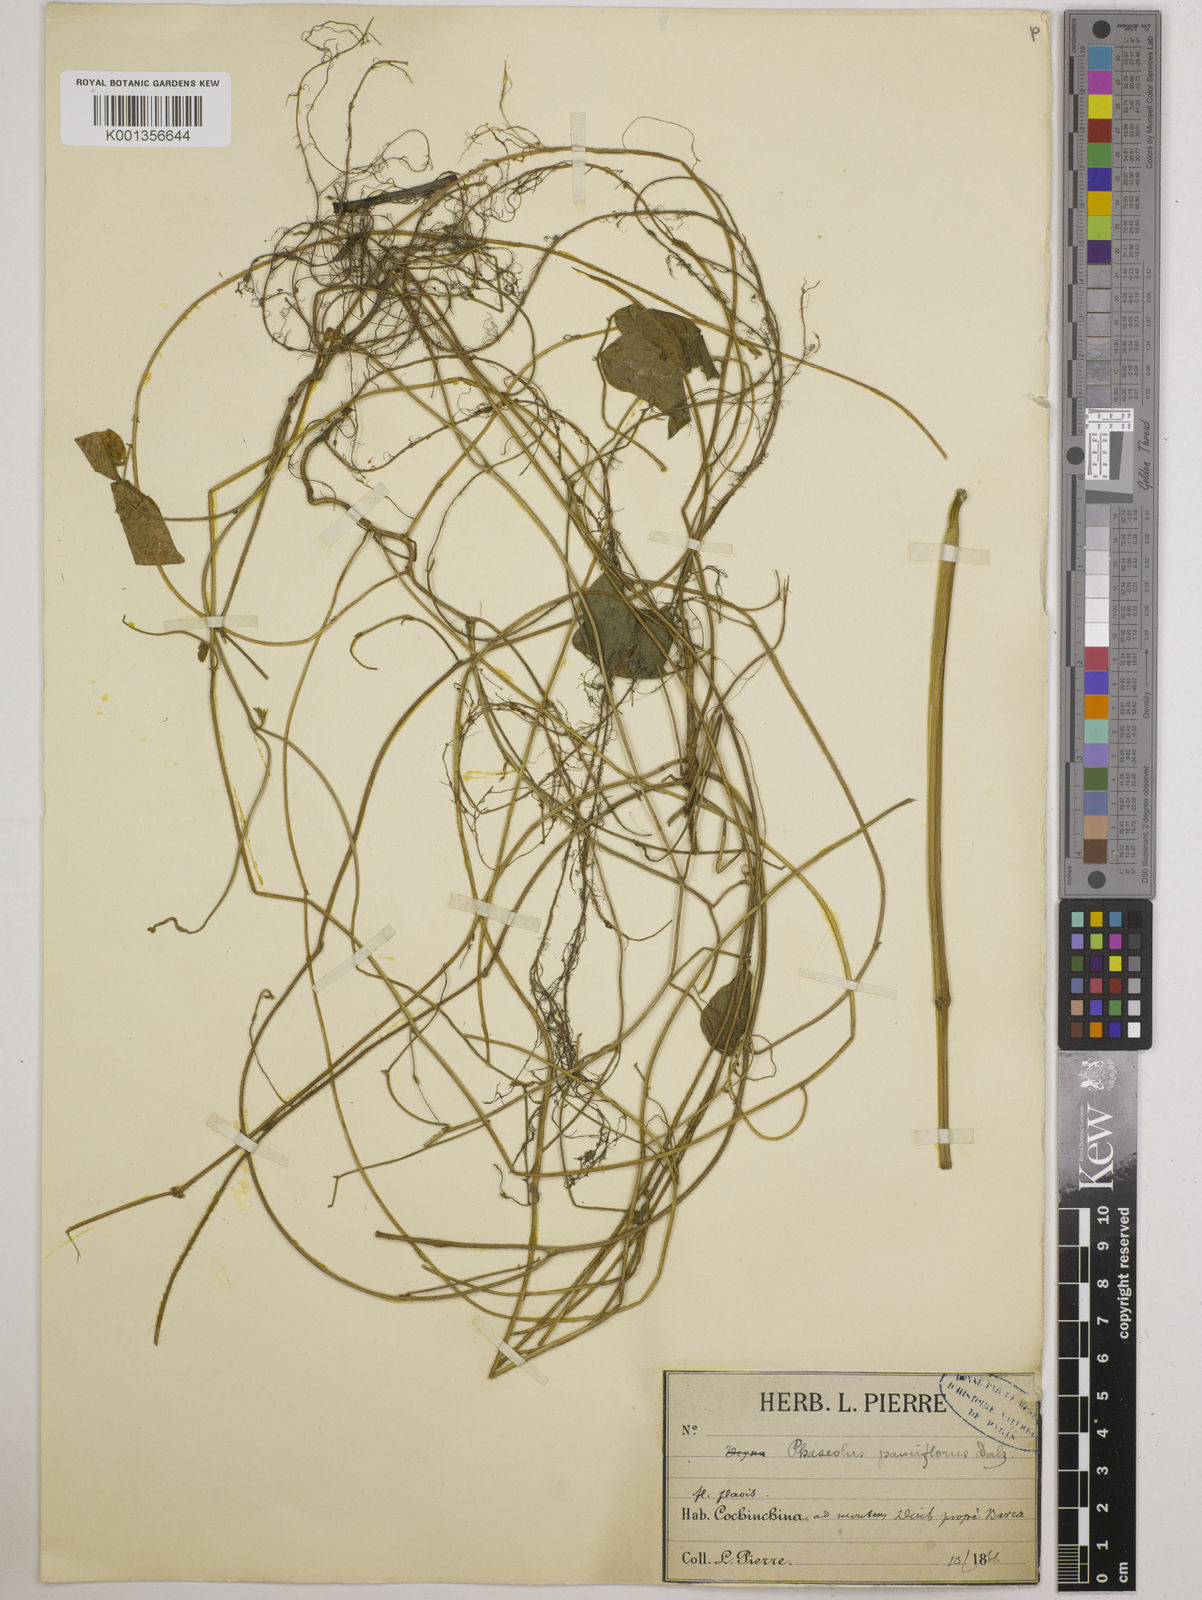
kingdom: Plantae
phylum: Tracheophyta
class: Magnoliopsida
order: Fabales
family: Fabaceae
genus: Vigna
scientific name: Vigna dalzelliana
